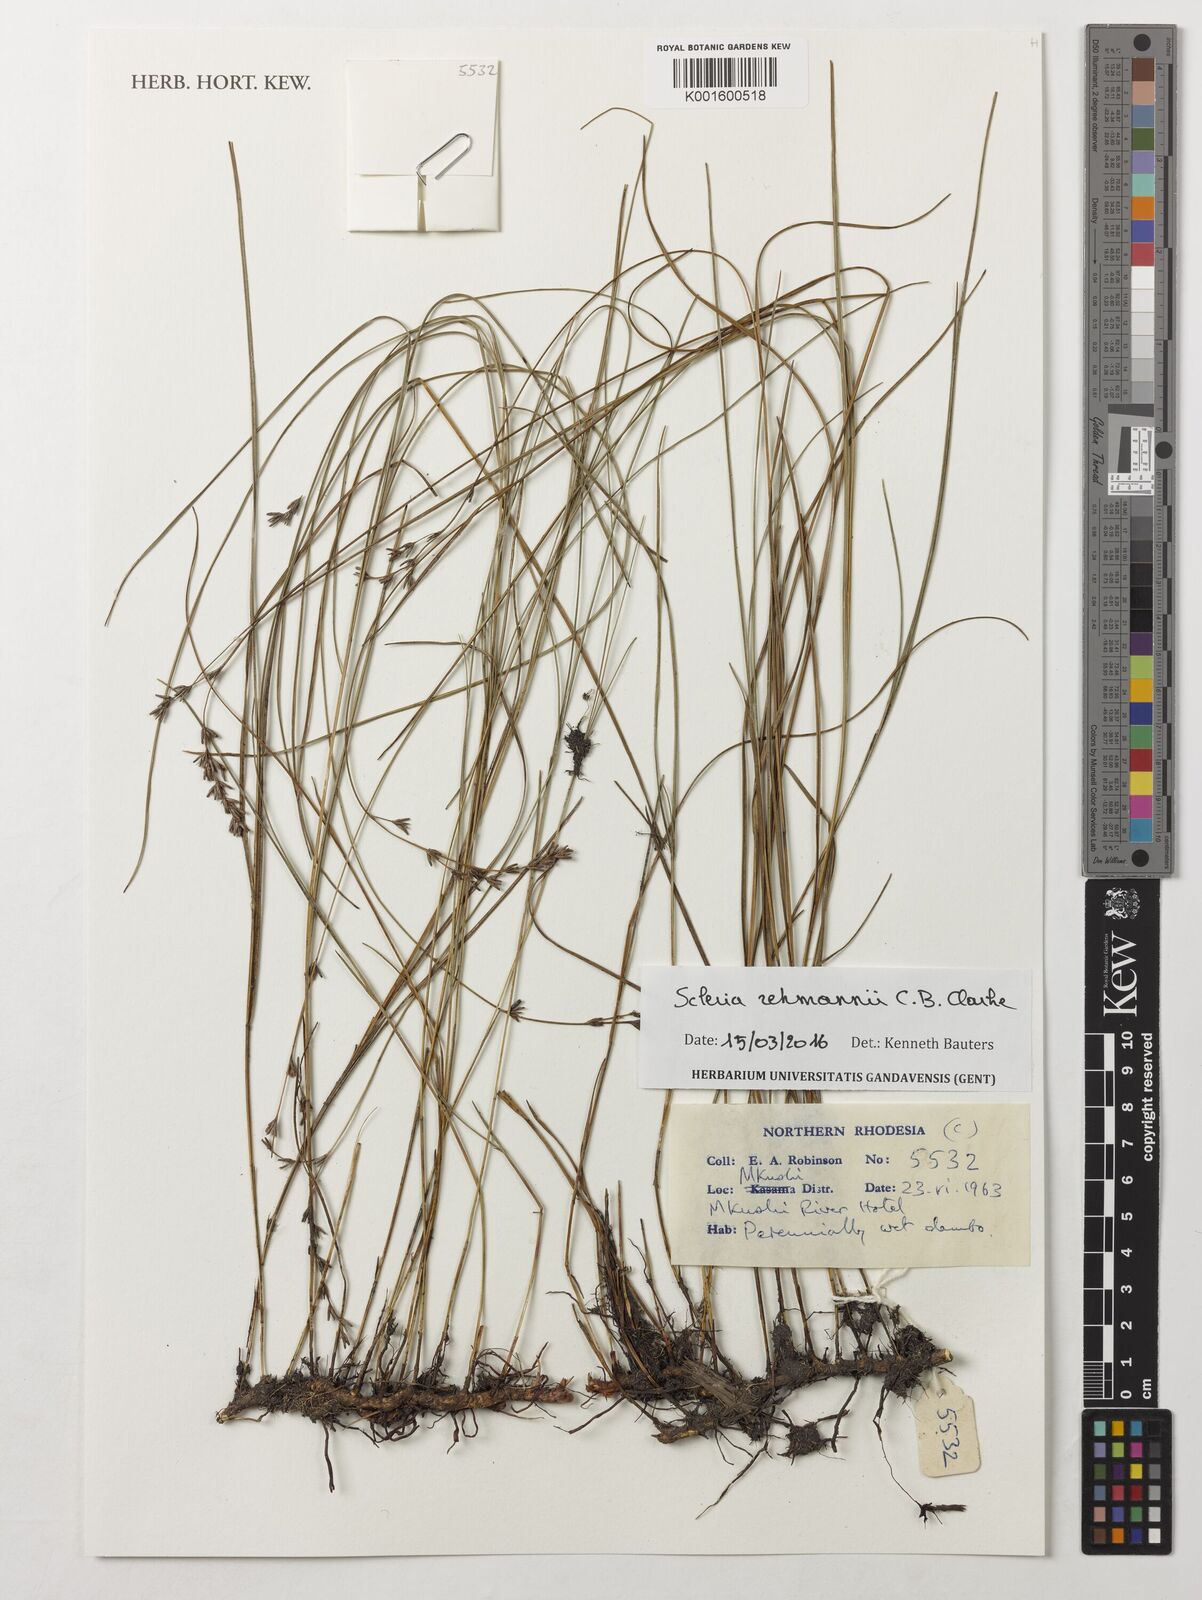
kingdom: Plantae
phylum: Tracheophyta
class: Liliopsida
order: Poales
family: Cyperaceae
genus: Scleria
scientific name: Scleria rehmannii
